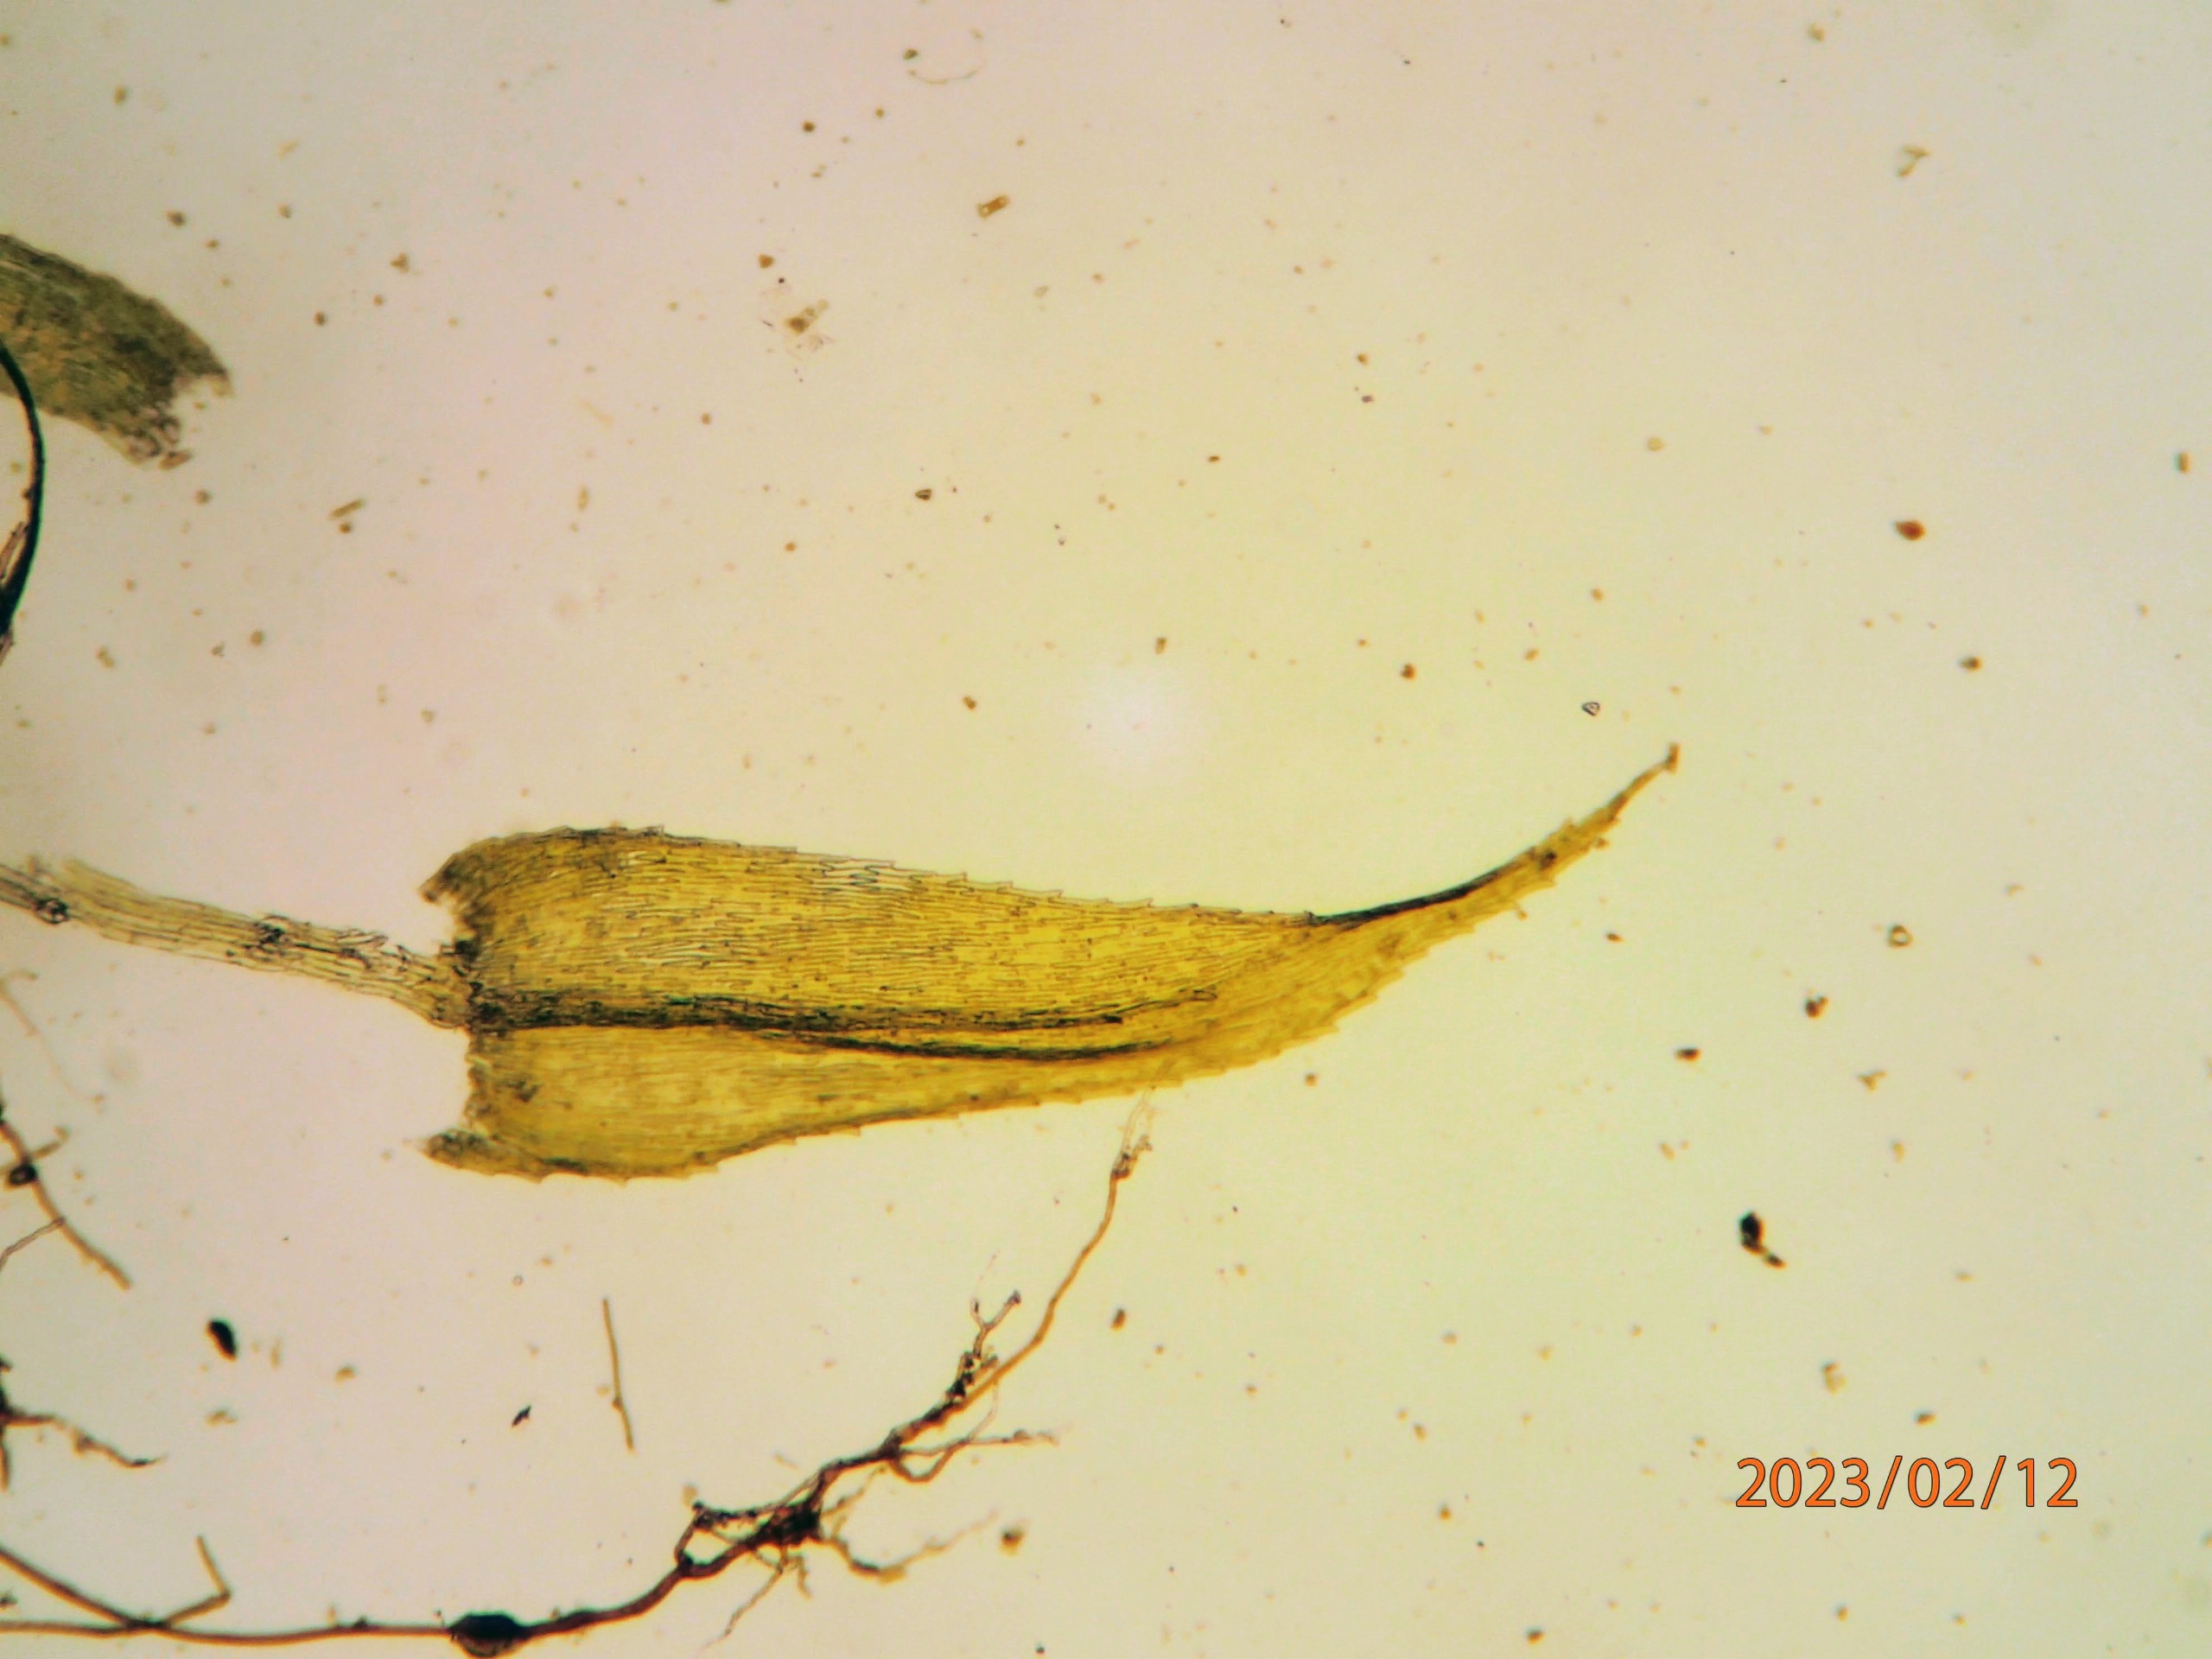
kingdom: Plantae
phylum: Bryophyta
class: Bryopsida
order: Hypnales
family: Brachytheciaceae
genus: Brachytheciastrum
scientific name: Brachytheciastrum velutinum
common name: Fløjls-kortkapsel
